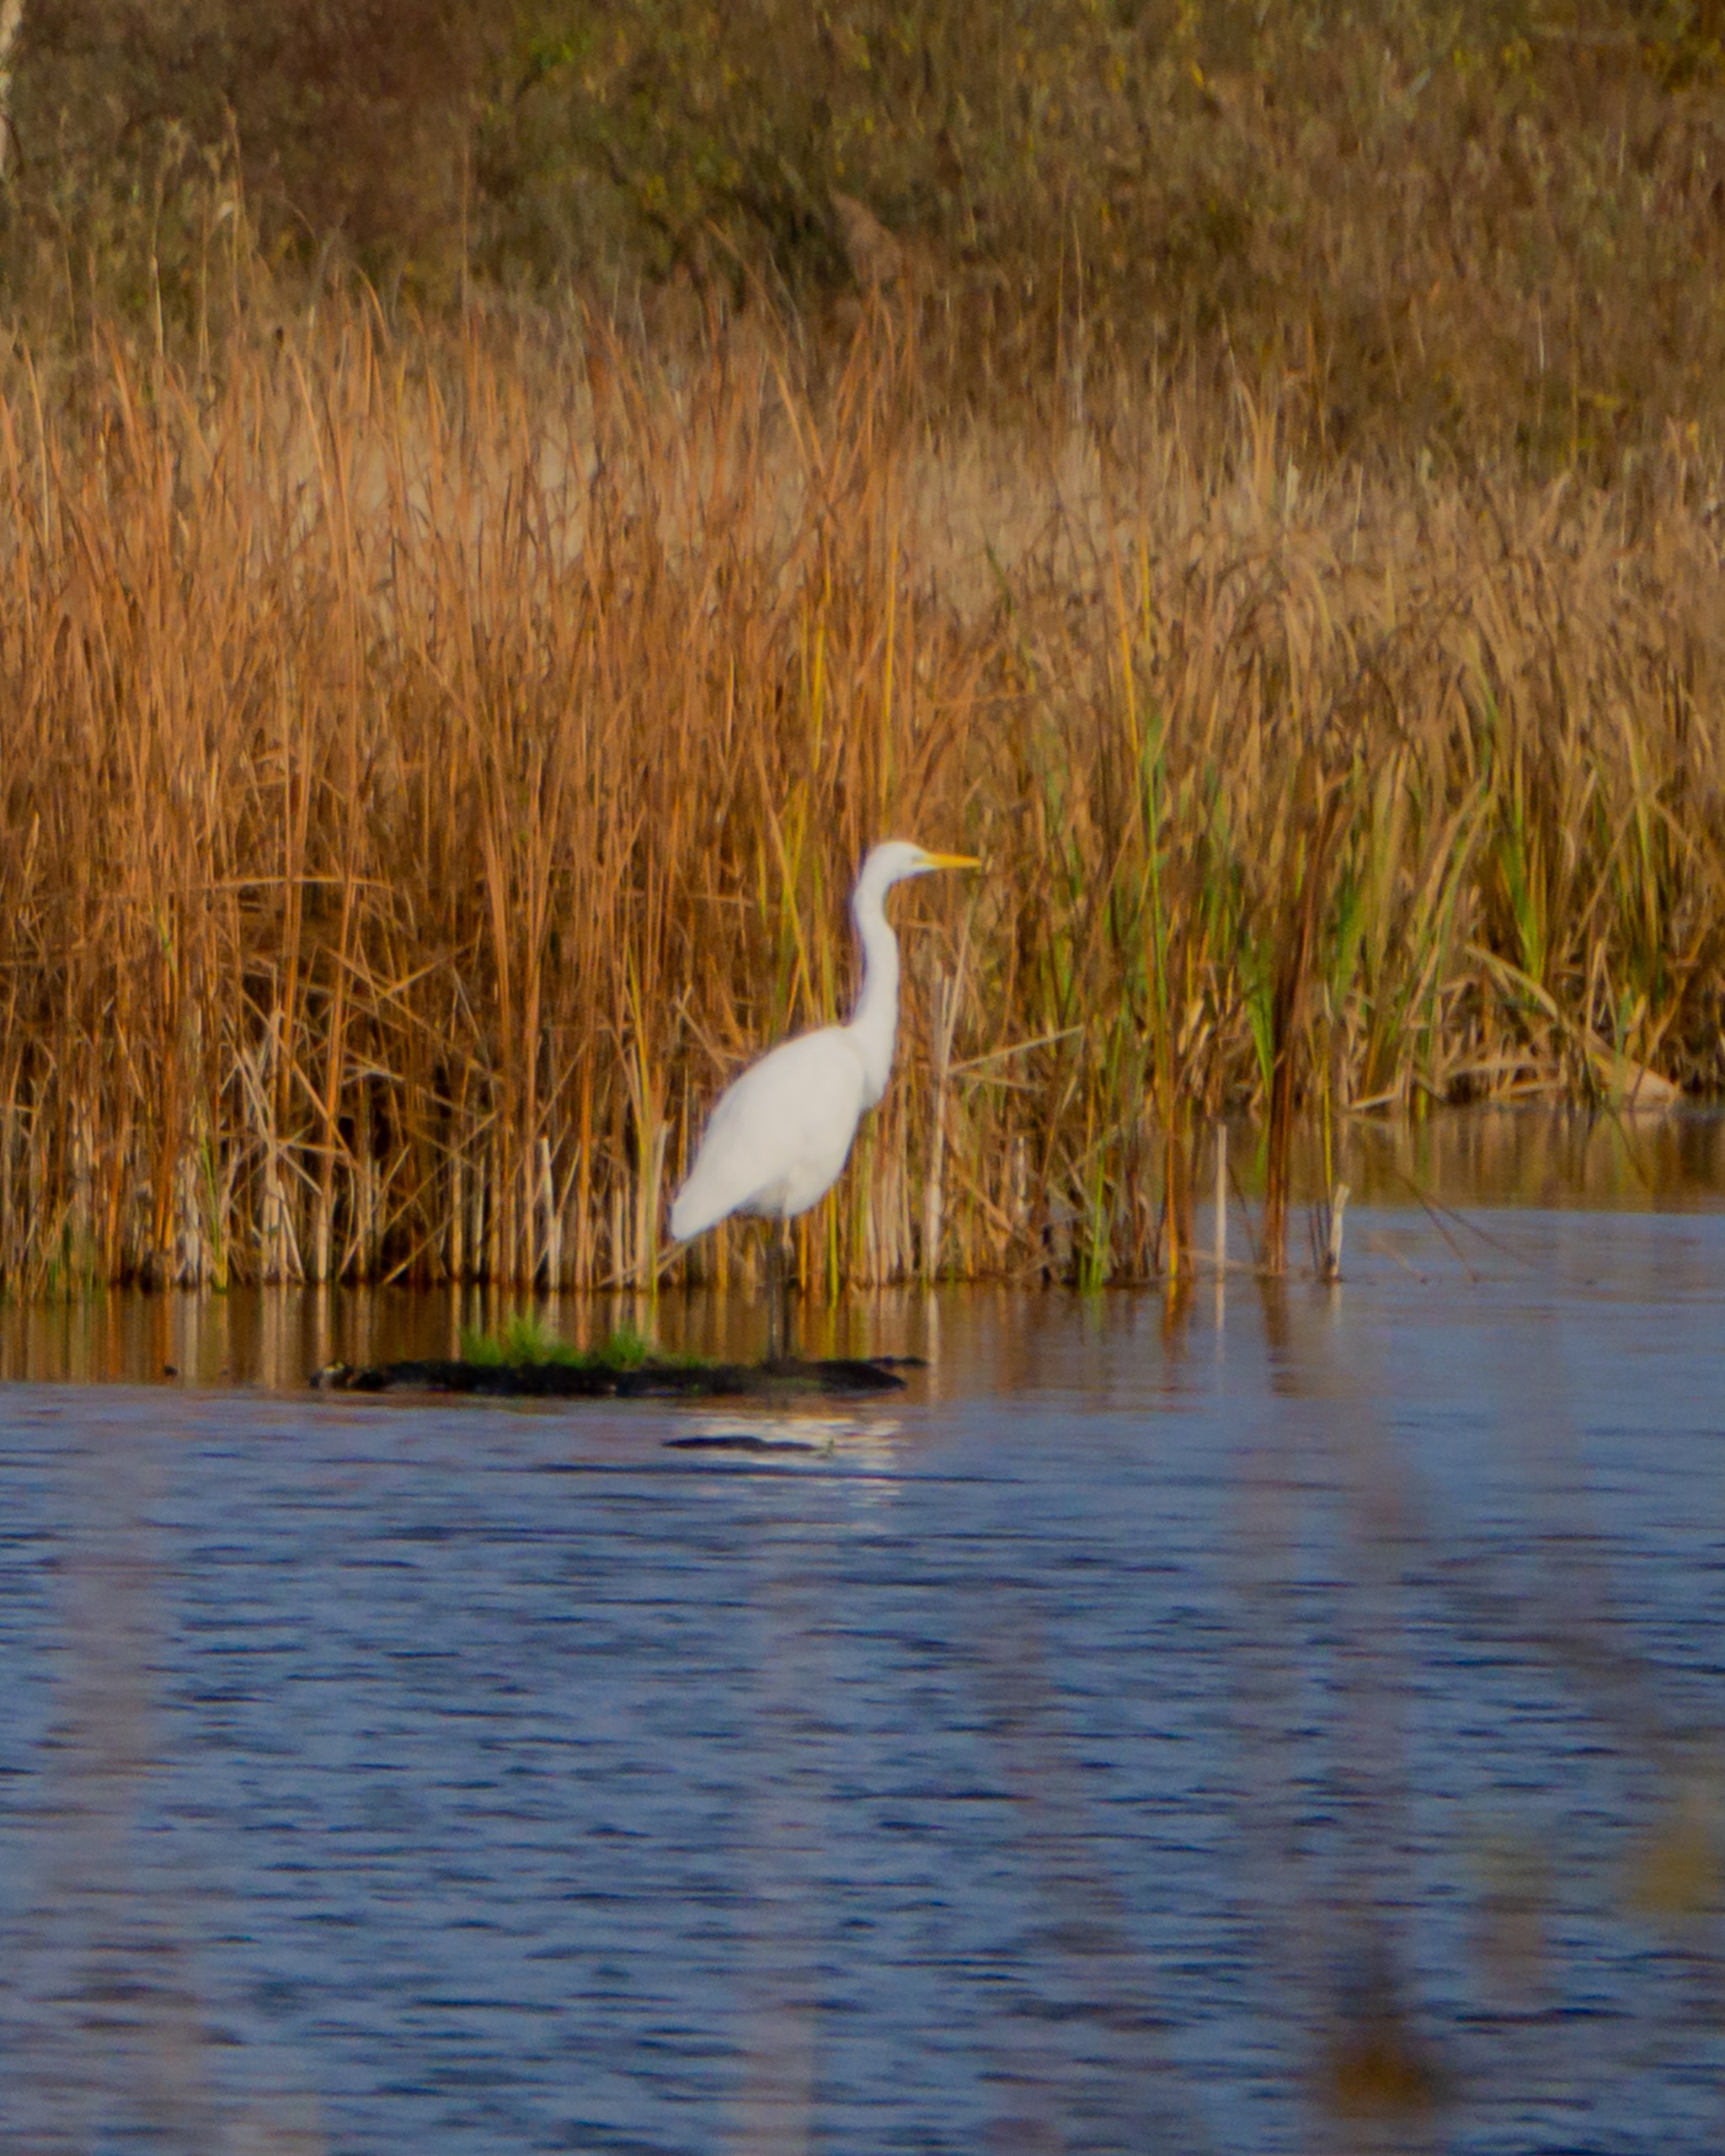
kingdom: Animalia
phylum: Chordata
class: Aves
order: Pelecaniformes
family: Ardeidae
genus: Ardea
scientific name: Ardea alba
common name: Sølvhejre
